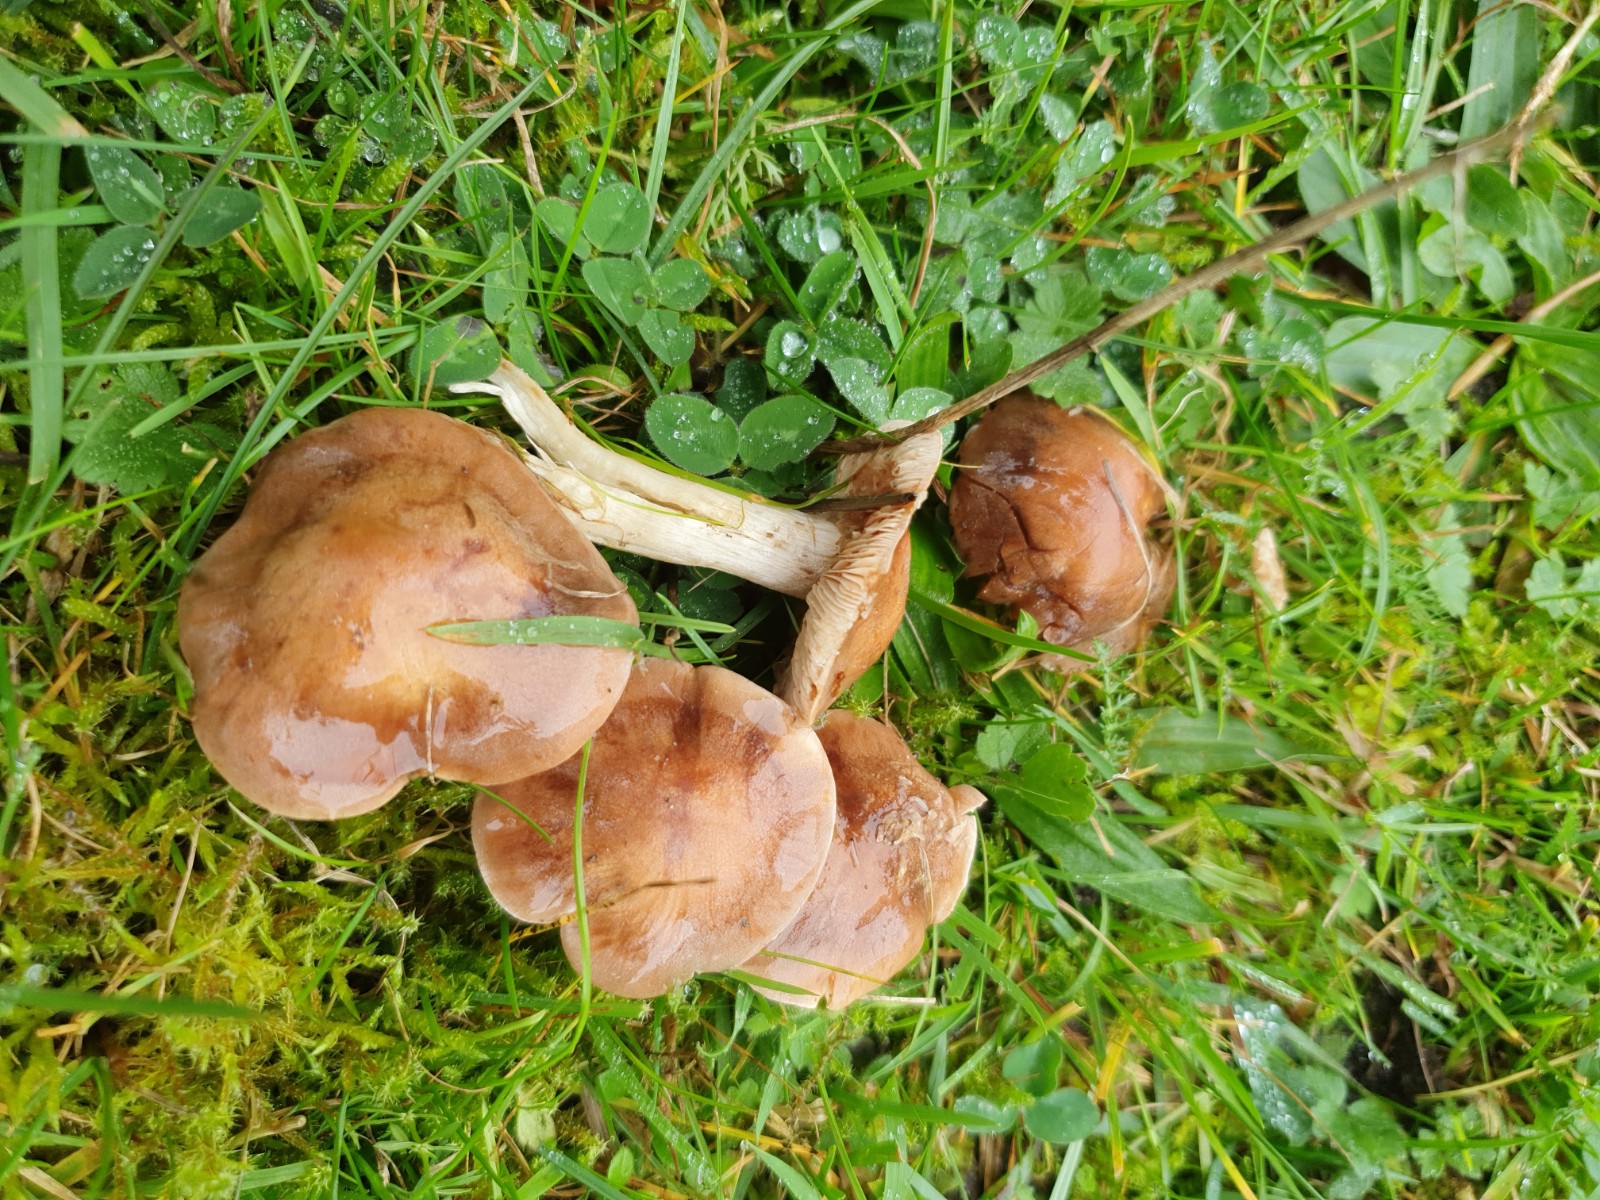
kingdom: Fungi
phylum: Basidiomycota
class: Agaricomycetes
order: Agaricales
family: Hymenogastraceae
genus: Hebeloma
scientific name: Hebeloma theobrominum
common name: rødbrun tåreblad
